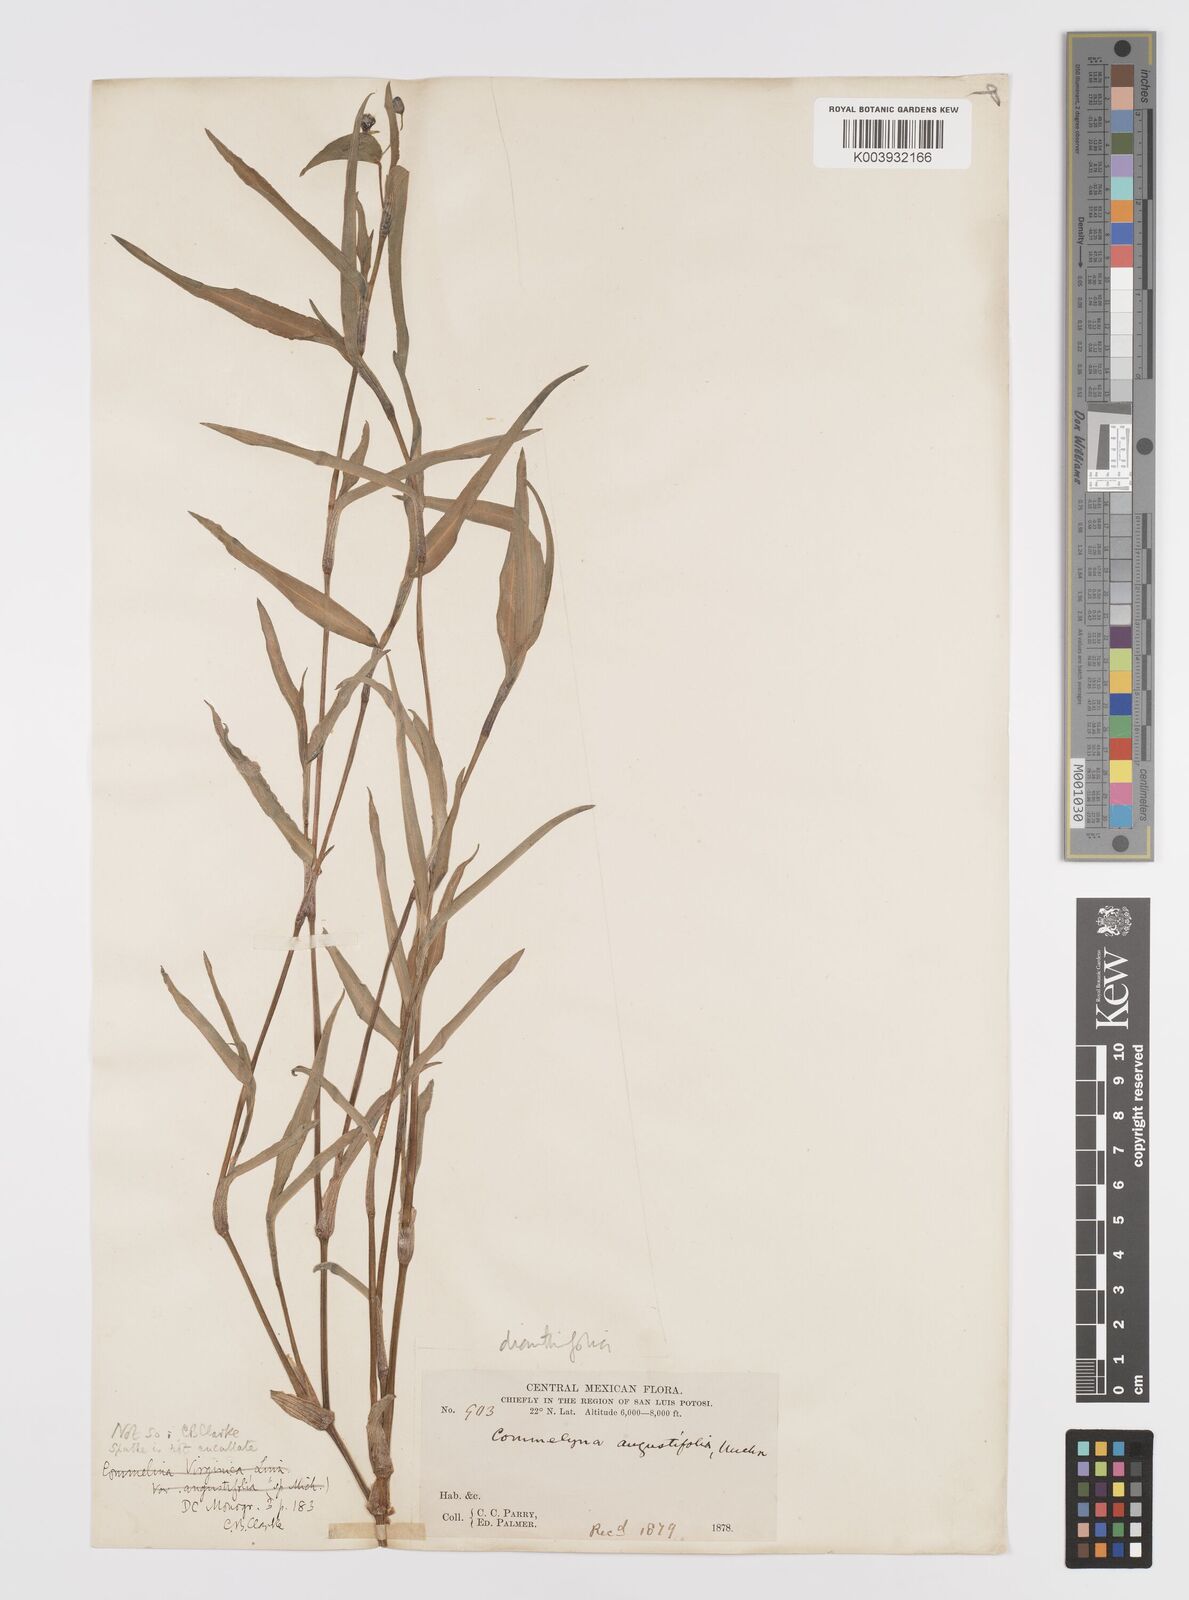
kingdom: Plantae
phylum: Tracheophyta
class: Liliopsida
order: Commelinales
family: Commelinaceae
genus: Commelina
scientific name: Commelina dianthifolia
